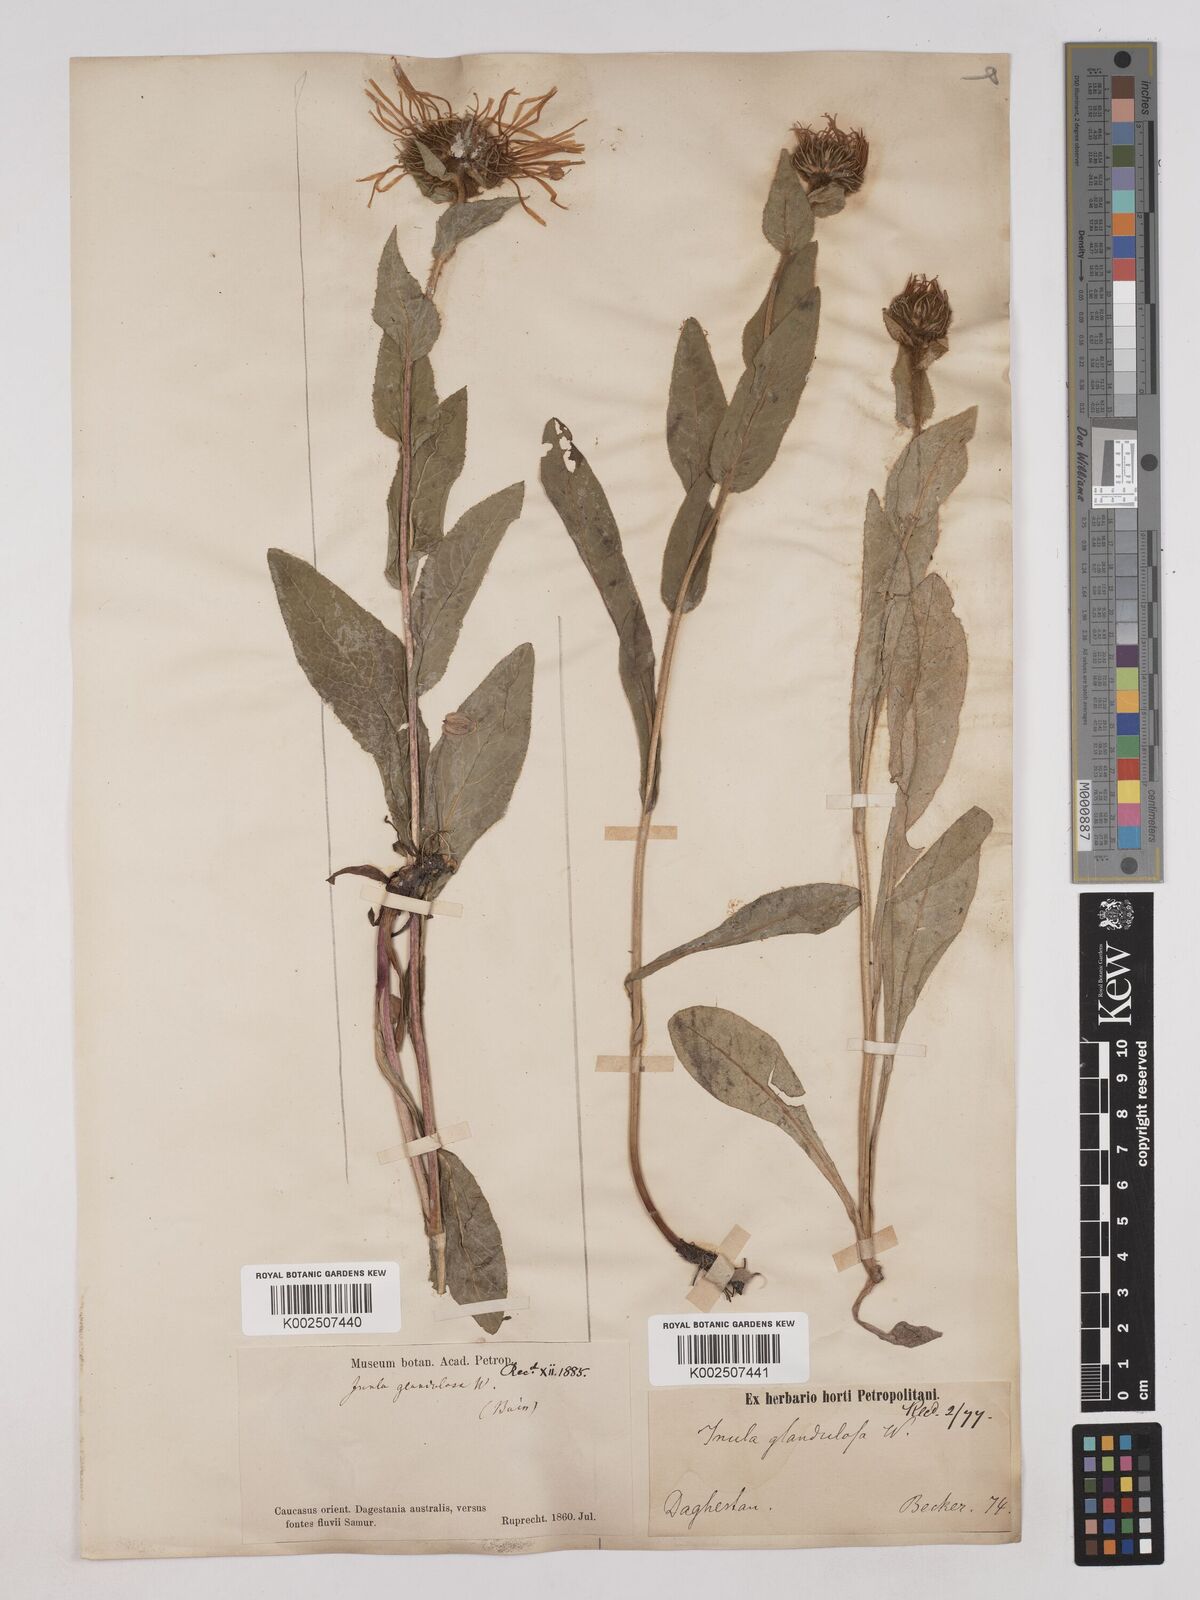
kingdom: Plantae
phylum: Tracheophyta
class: Magnoliopsida
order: Asterales
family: Asteraceae
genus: Pentanema
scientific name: Pentanema orientale
